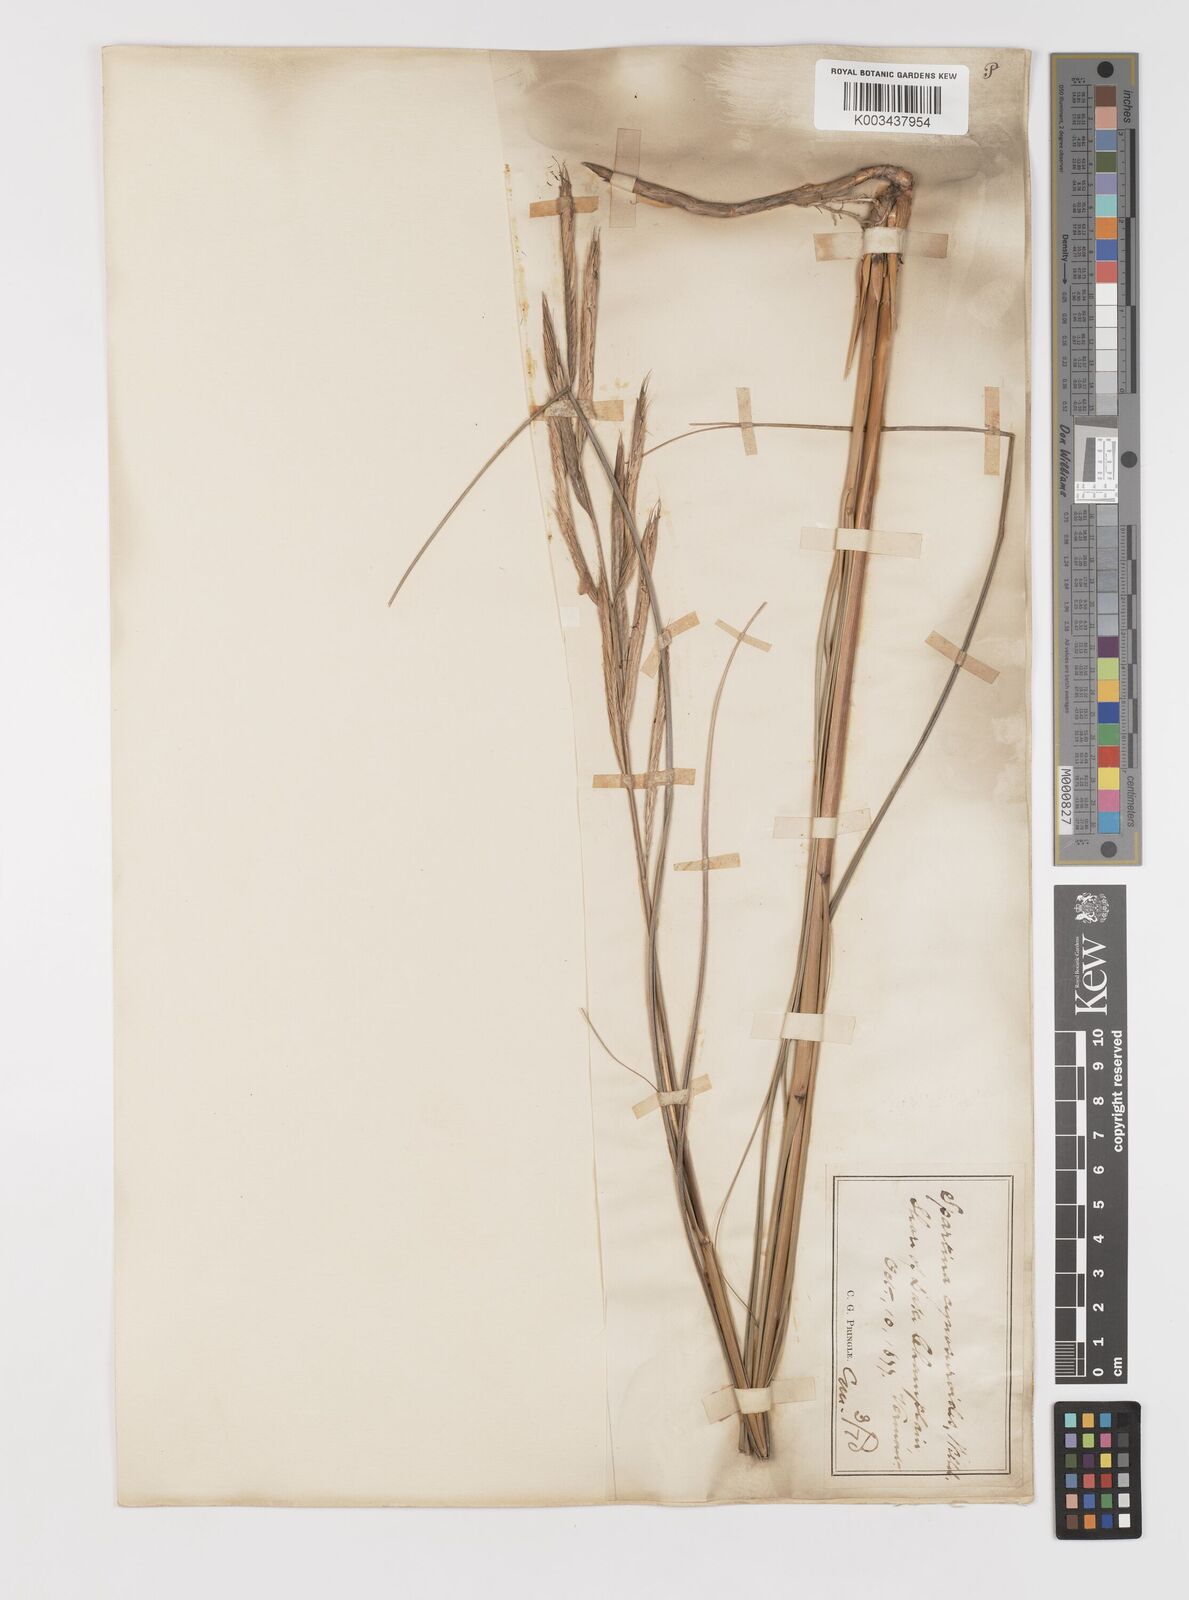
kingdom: Plantae
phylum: Tracheophyta
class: Liliopsida
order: Poales
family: Poaceae
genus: Sporobolus
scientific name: Sporobolus michauxianus
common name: Freshwater cordgrass
